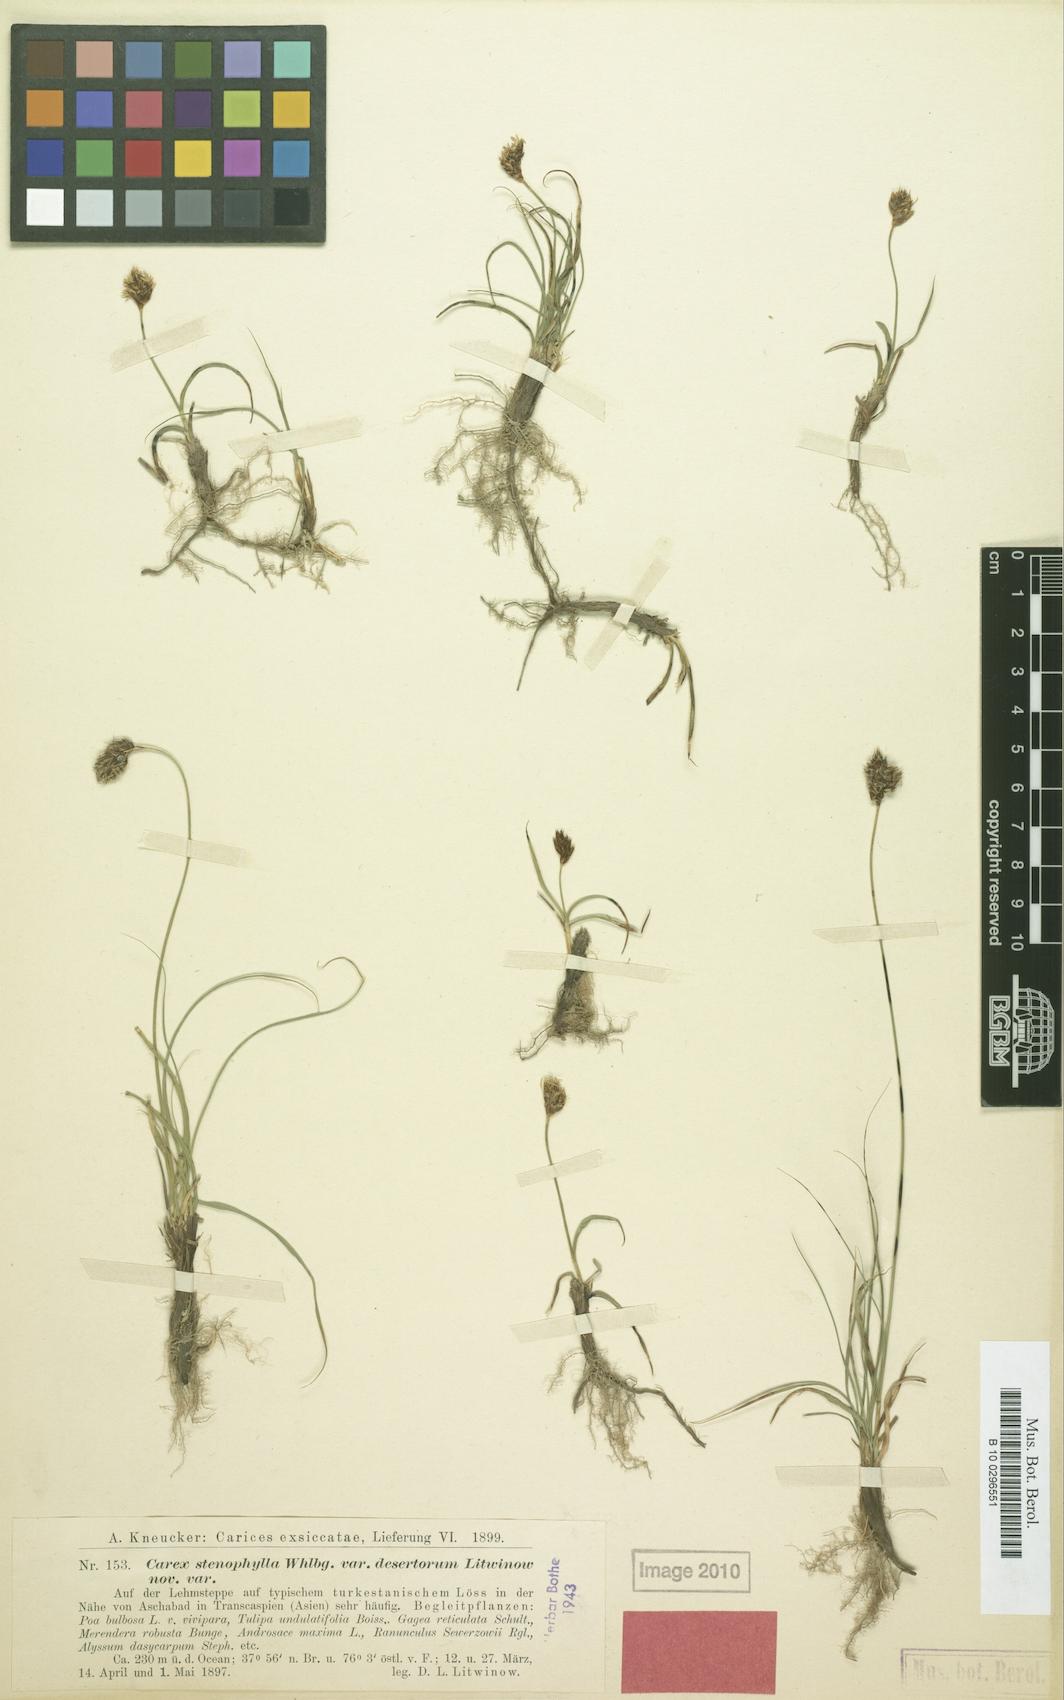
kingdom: Plantae
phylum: Tracheophyta
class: Liliopsida
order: Poales
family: Cyperaceae
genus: Carex
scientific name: Carex pachystylis
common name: Thick-stem sedge
